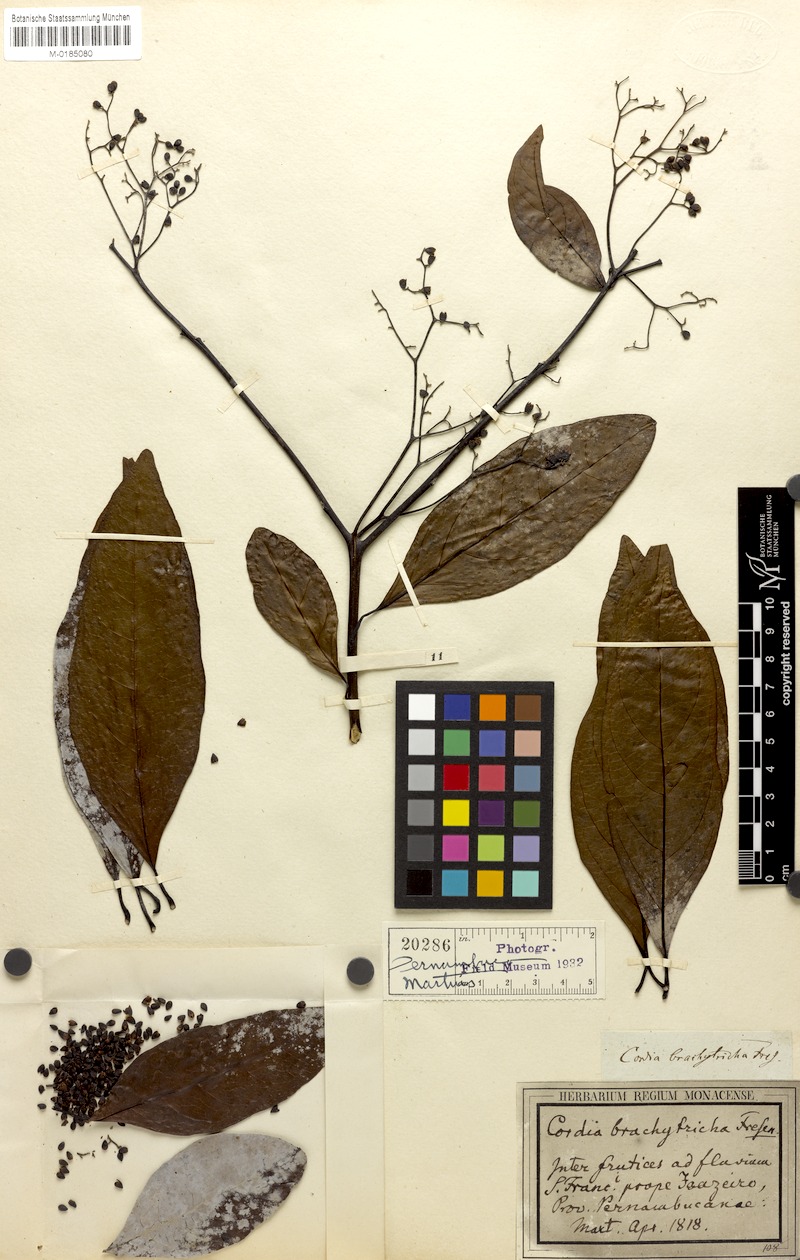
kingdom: Plantae
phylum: Tracheophyta
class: Magnoliopsida
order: Boraginales
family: Cordiaceae
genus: Cordia
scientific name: Cordia brachytricha
